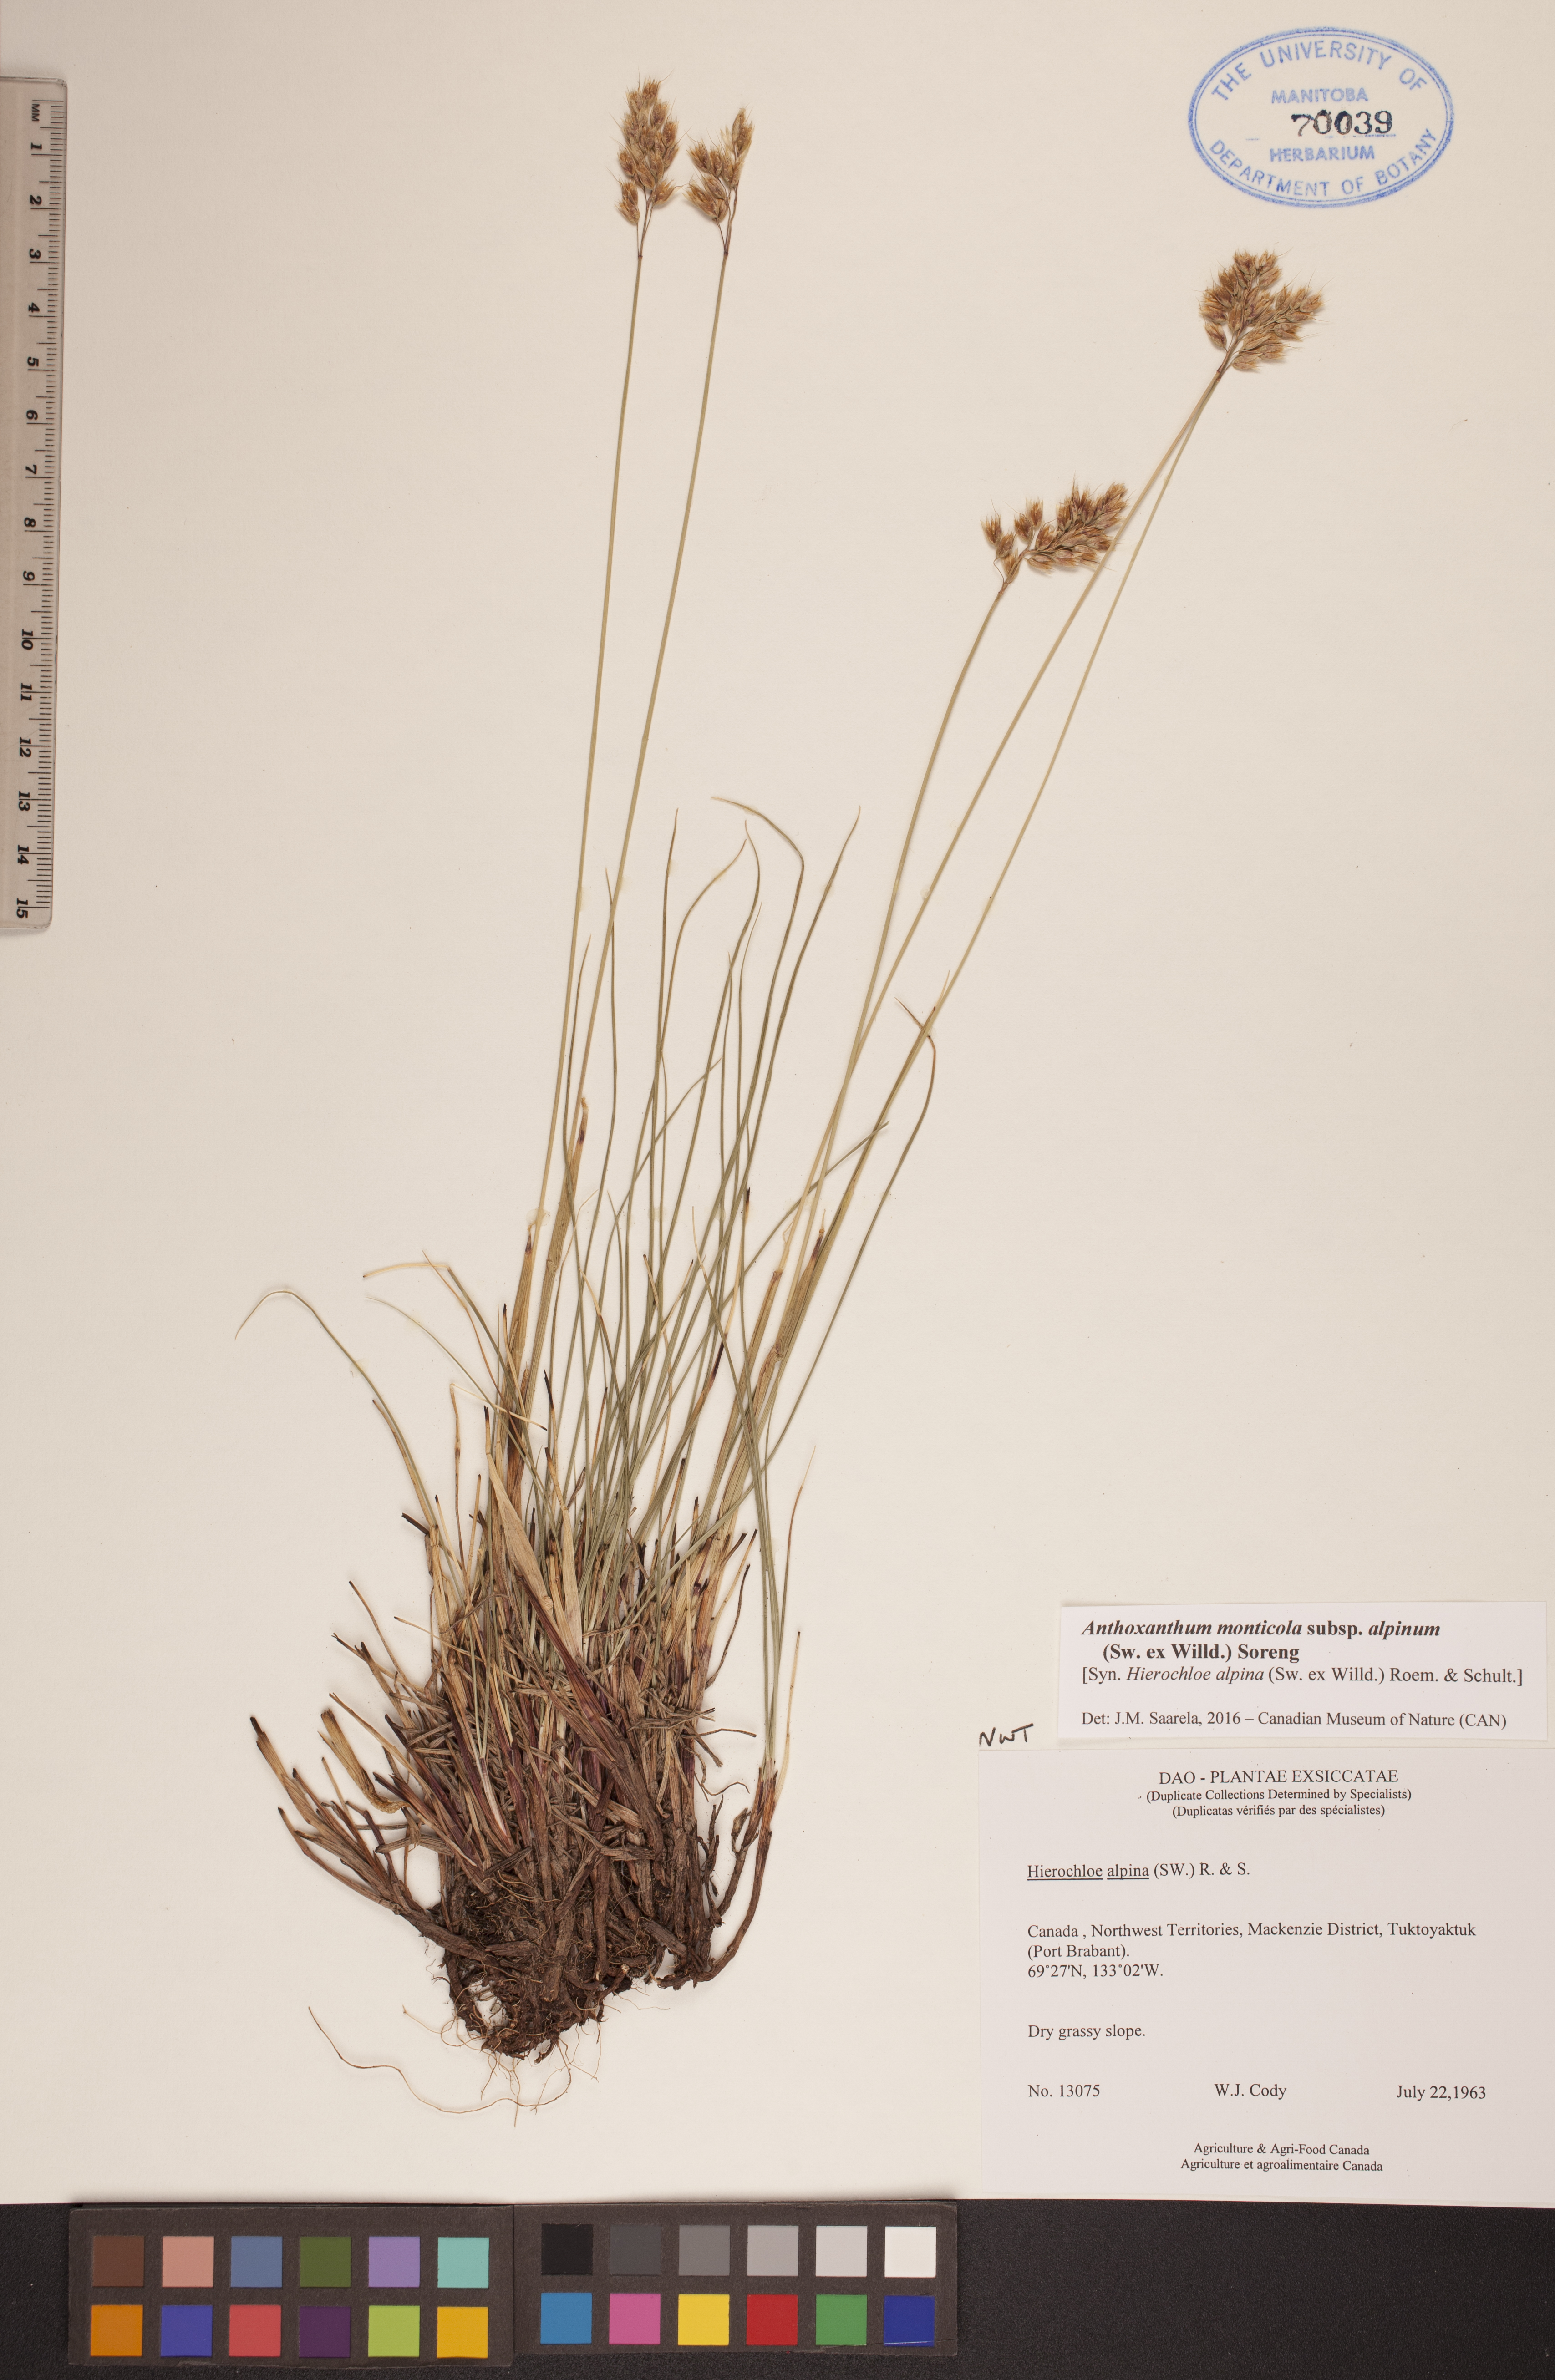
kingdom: Plantae
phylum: Tracheophyta
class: Liliopsida
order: Poales
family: Poaceae
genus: Anthoxanthum
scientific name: Anthoxanthum monticola
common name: Alpine sweetgrass
